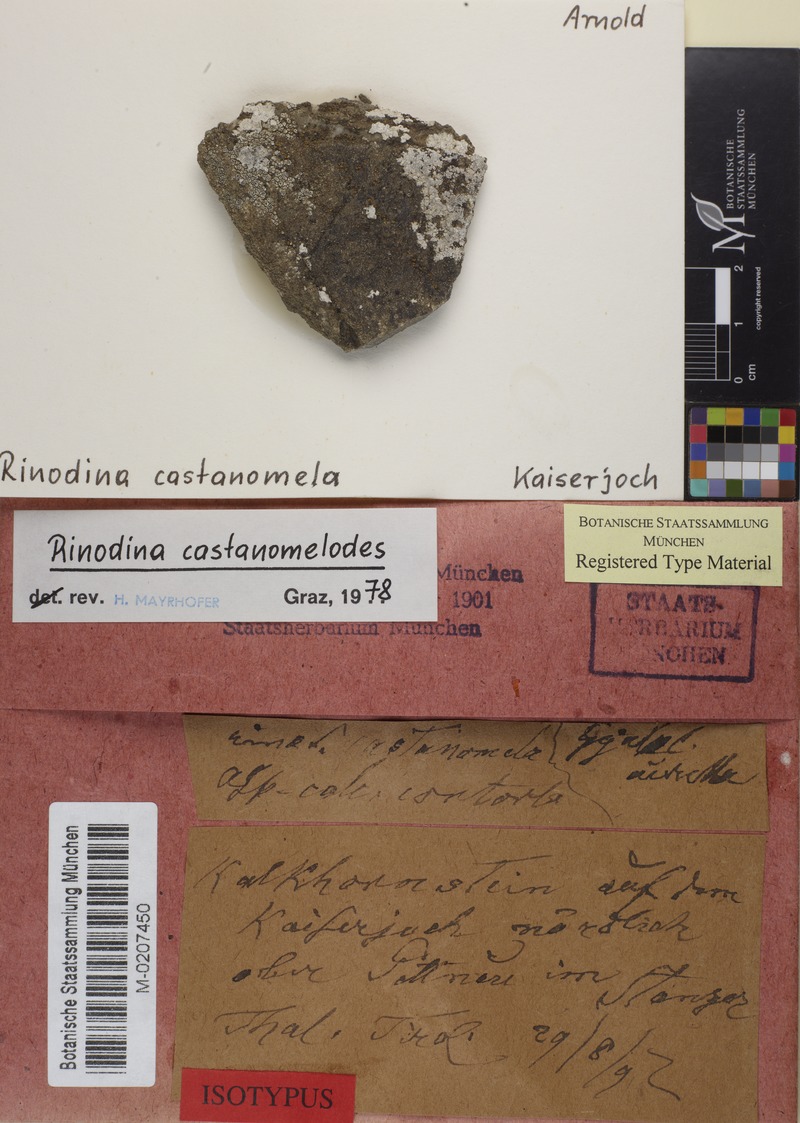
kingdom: Fungi
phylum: Ascomycota
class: Lecanoromycetes
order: Caliciales
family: Physciaceae
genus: Oxnerella
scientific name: Oxnerella castanomelodes
